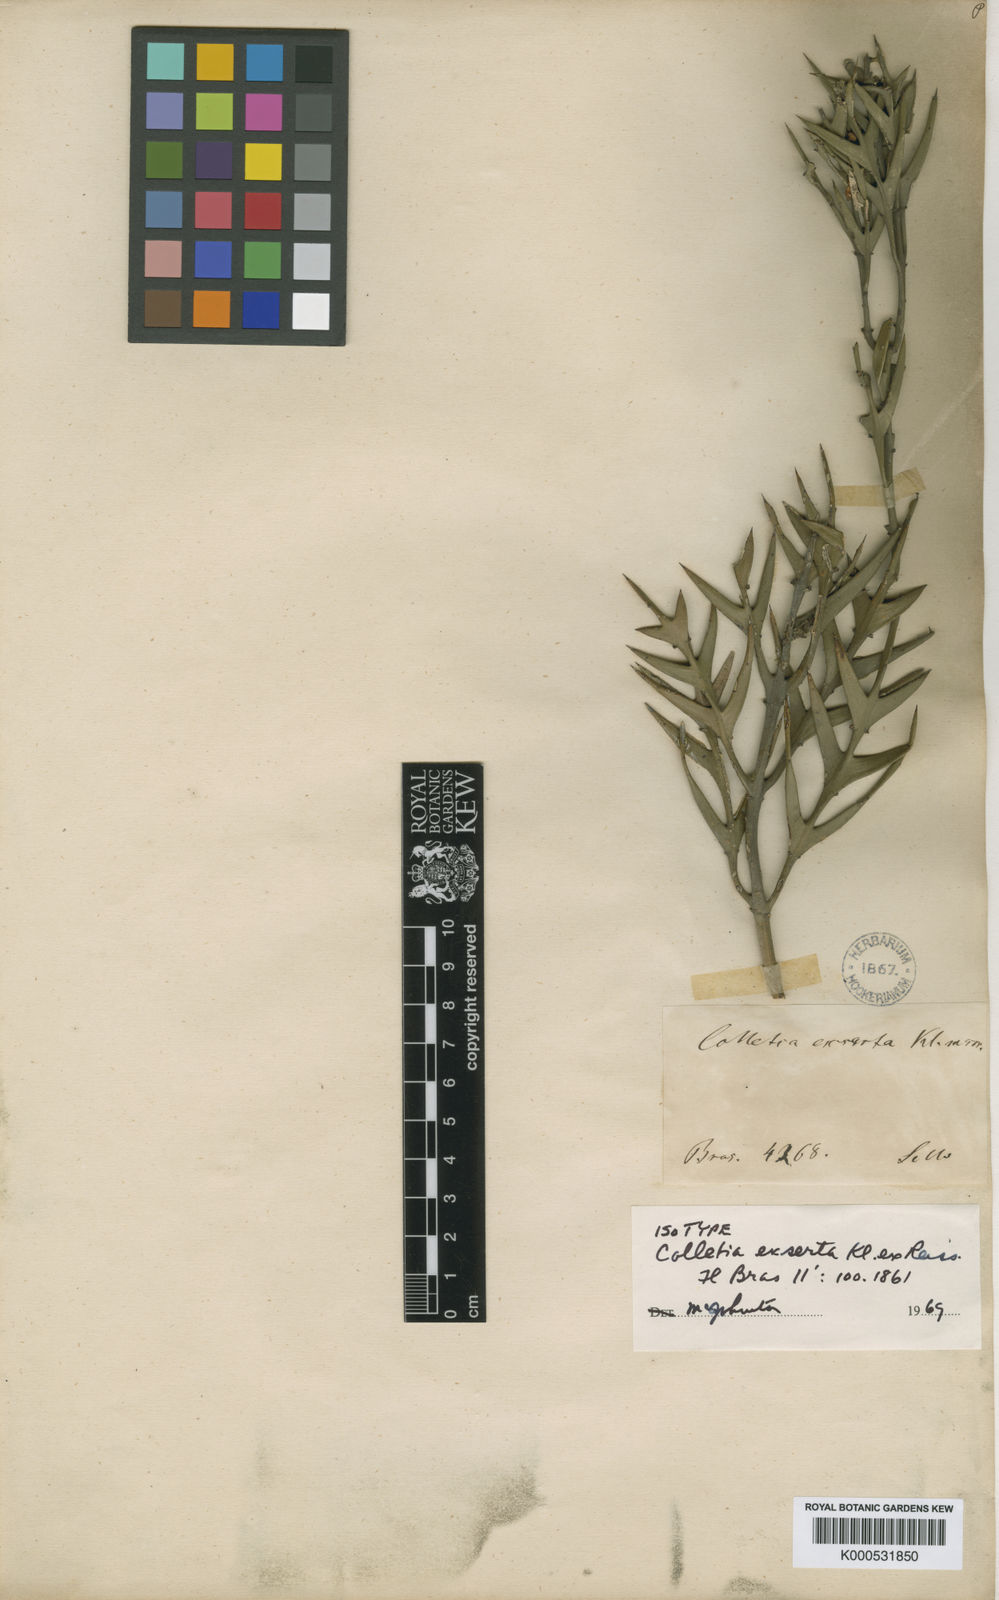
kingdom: Plantae
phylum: Tracheophyta
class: Magnoliopsida
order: Rosales
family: Rhamnaceae
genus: Colletia
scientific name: Colletia paradoxa
